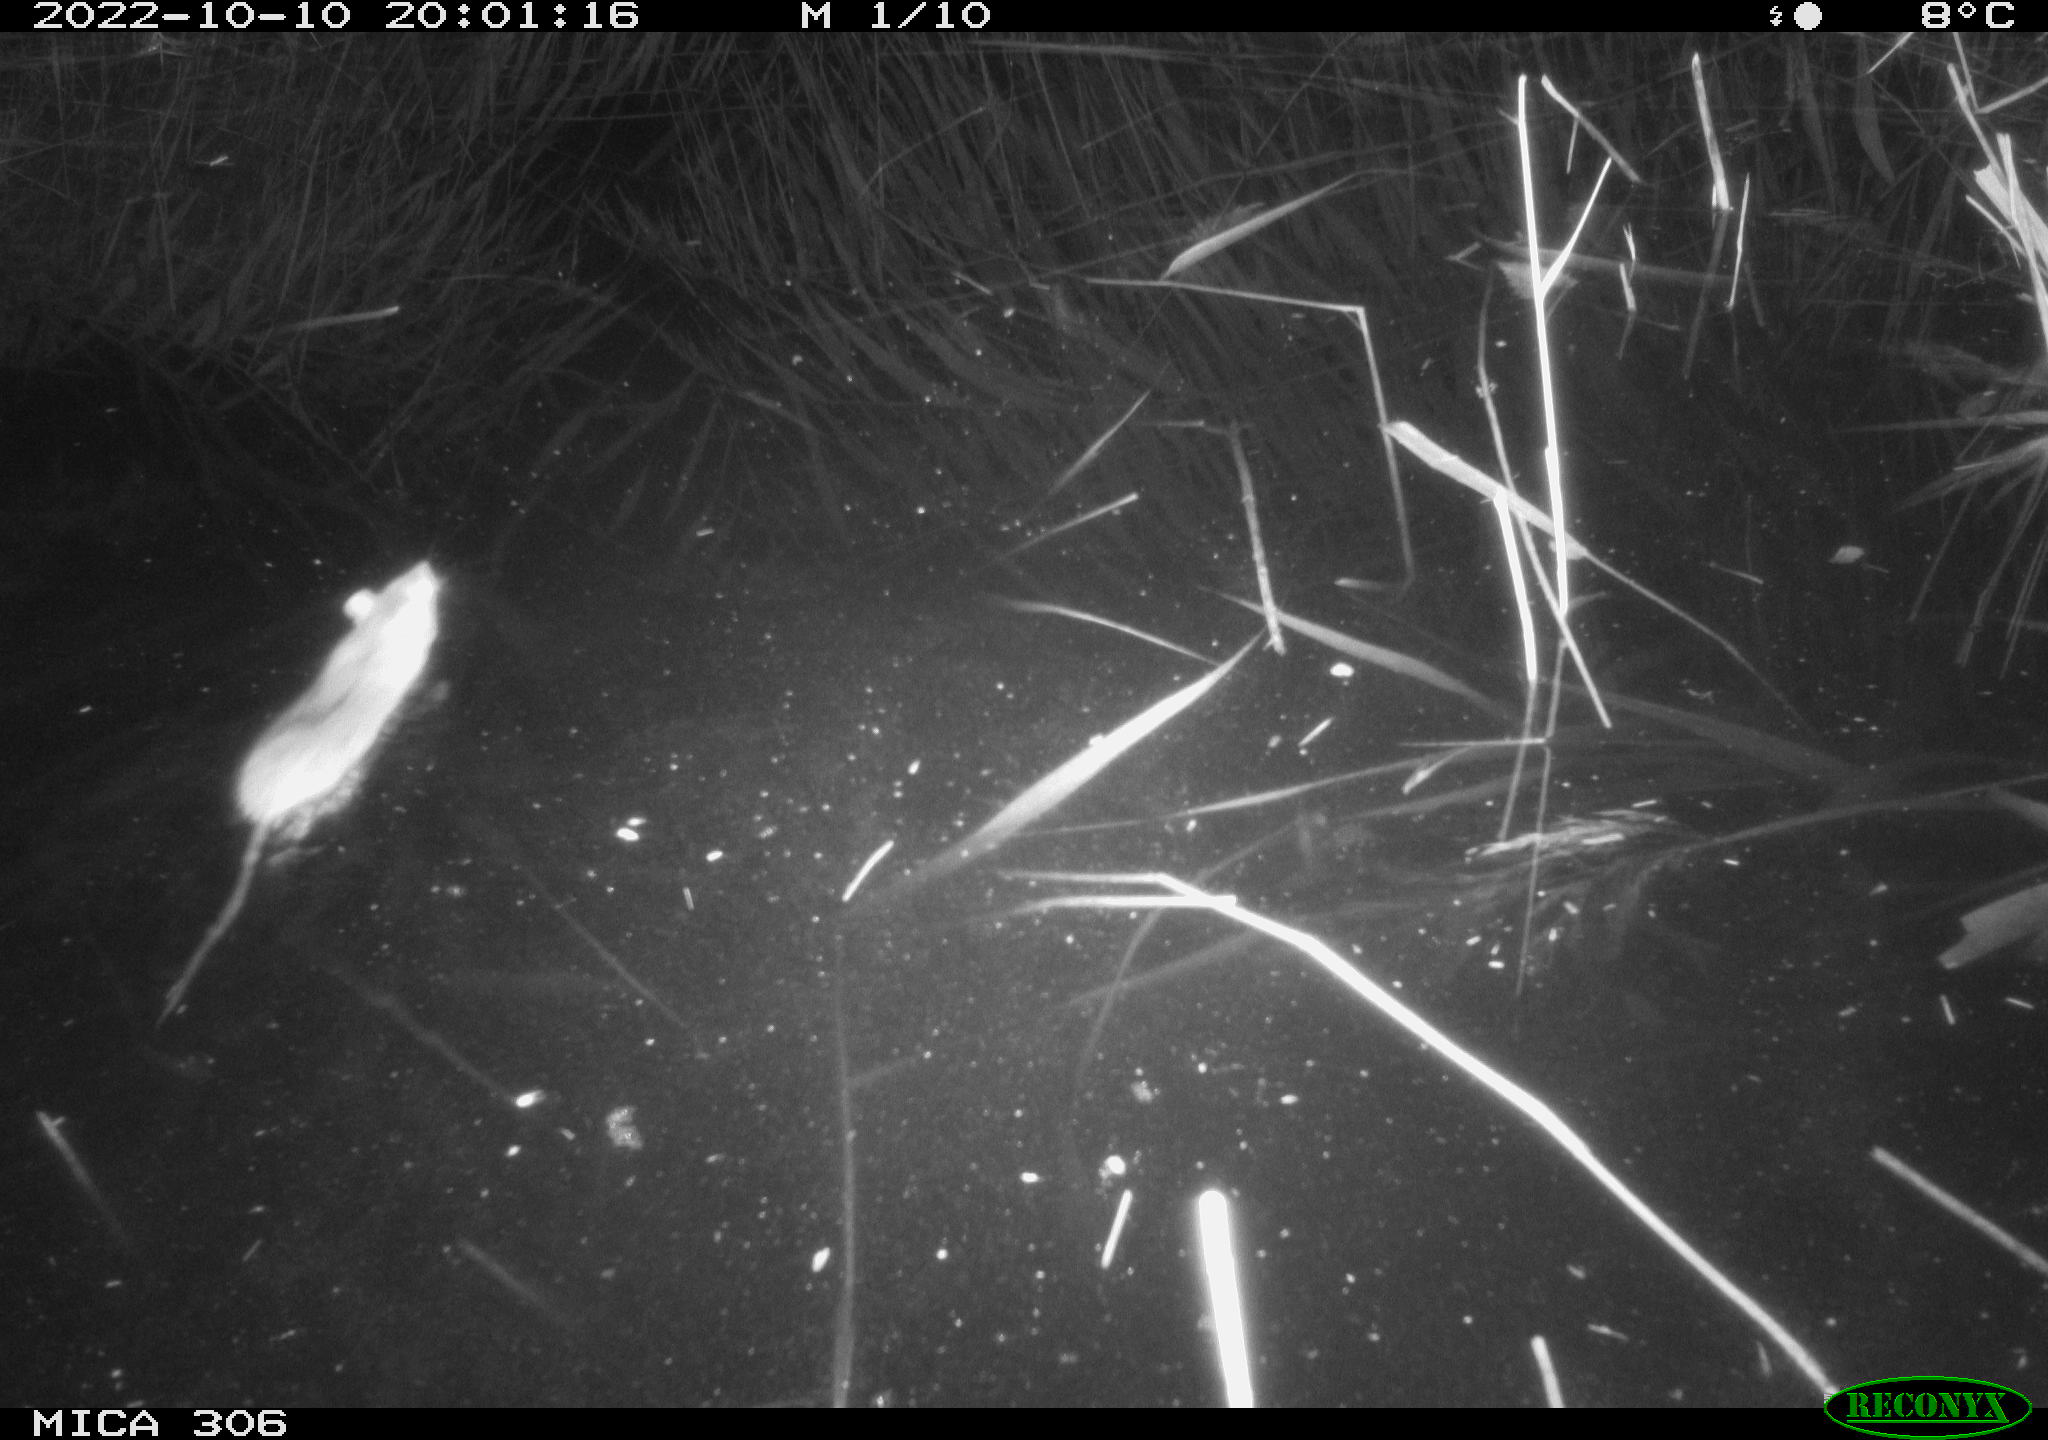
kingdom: Animalia
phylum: Chordata
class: Mammalia
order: Rodentia
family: Muridae
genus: Rattus
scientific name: Rattus norvegicus
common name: Brown rat
